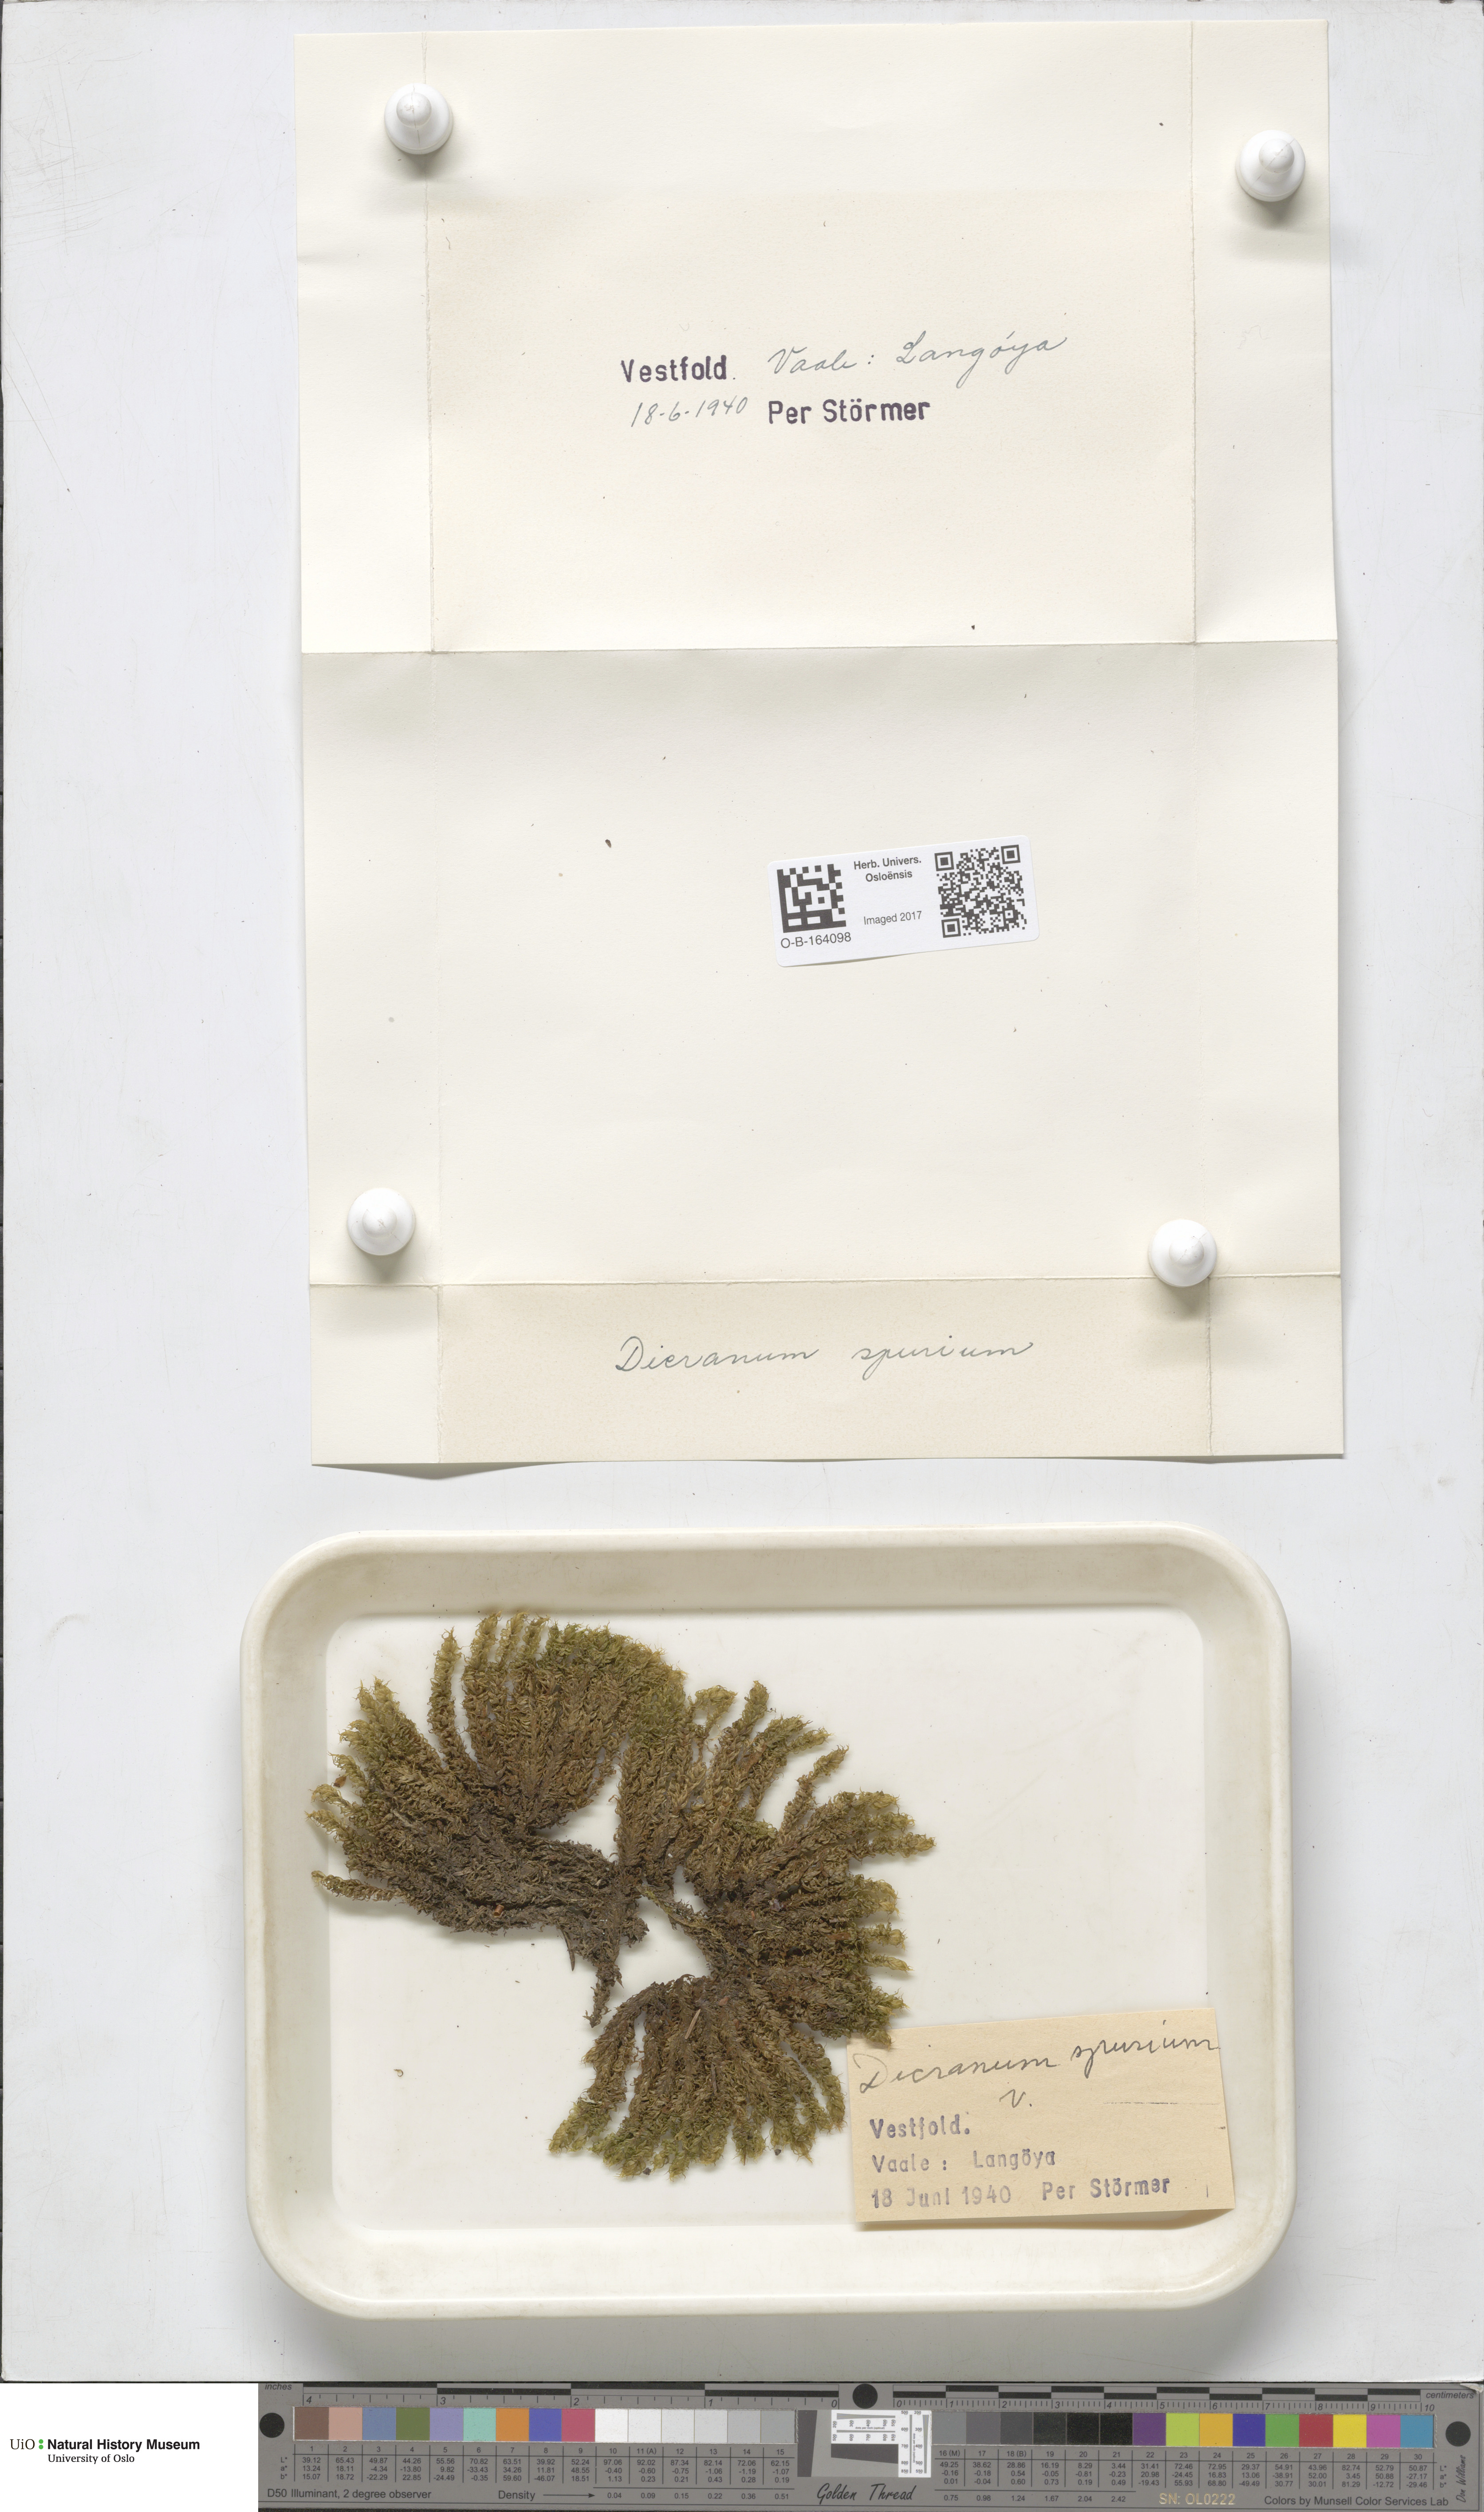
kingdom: Plantae
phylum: Bryophyta
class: Bryopsida
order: Dicranales
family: Dicranaceae
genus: Dicranum
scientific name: Dicranum spurium
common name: Spurred broom moss
